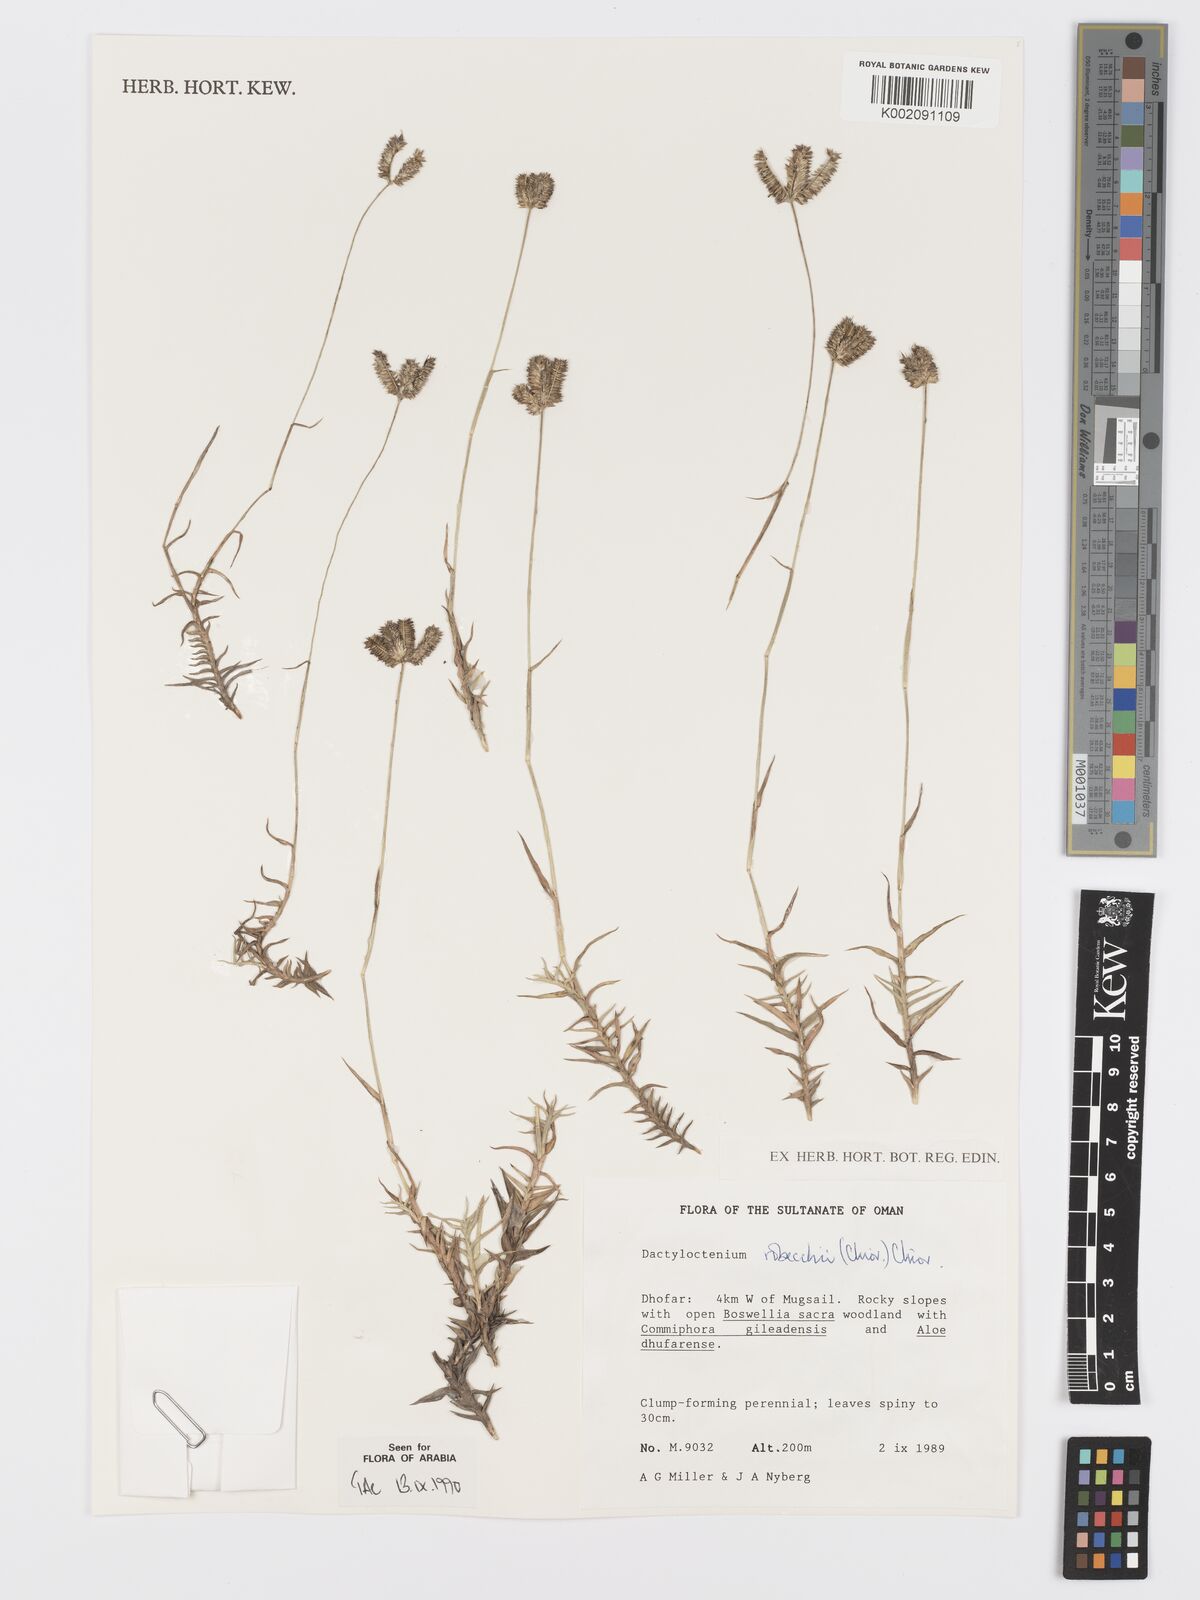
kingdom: Plantae
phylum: Tracheophyta
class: Liliopsida
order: Poales
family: Poaceae
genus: Dactyloctenium
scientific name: Dactyloctenium robecchii
